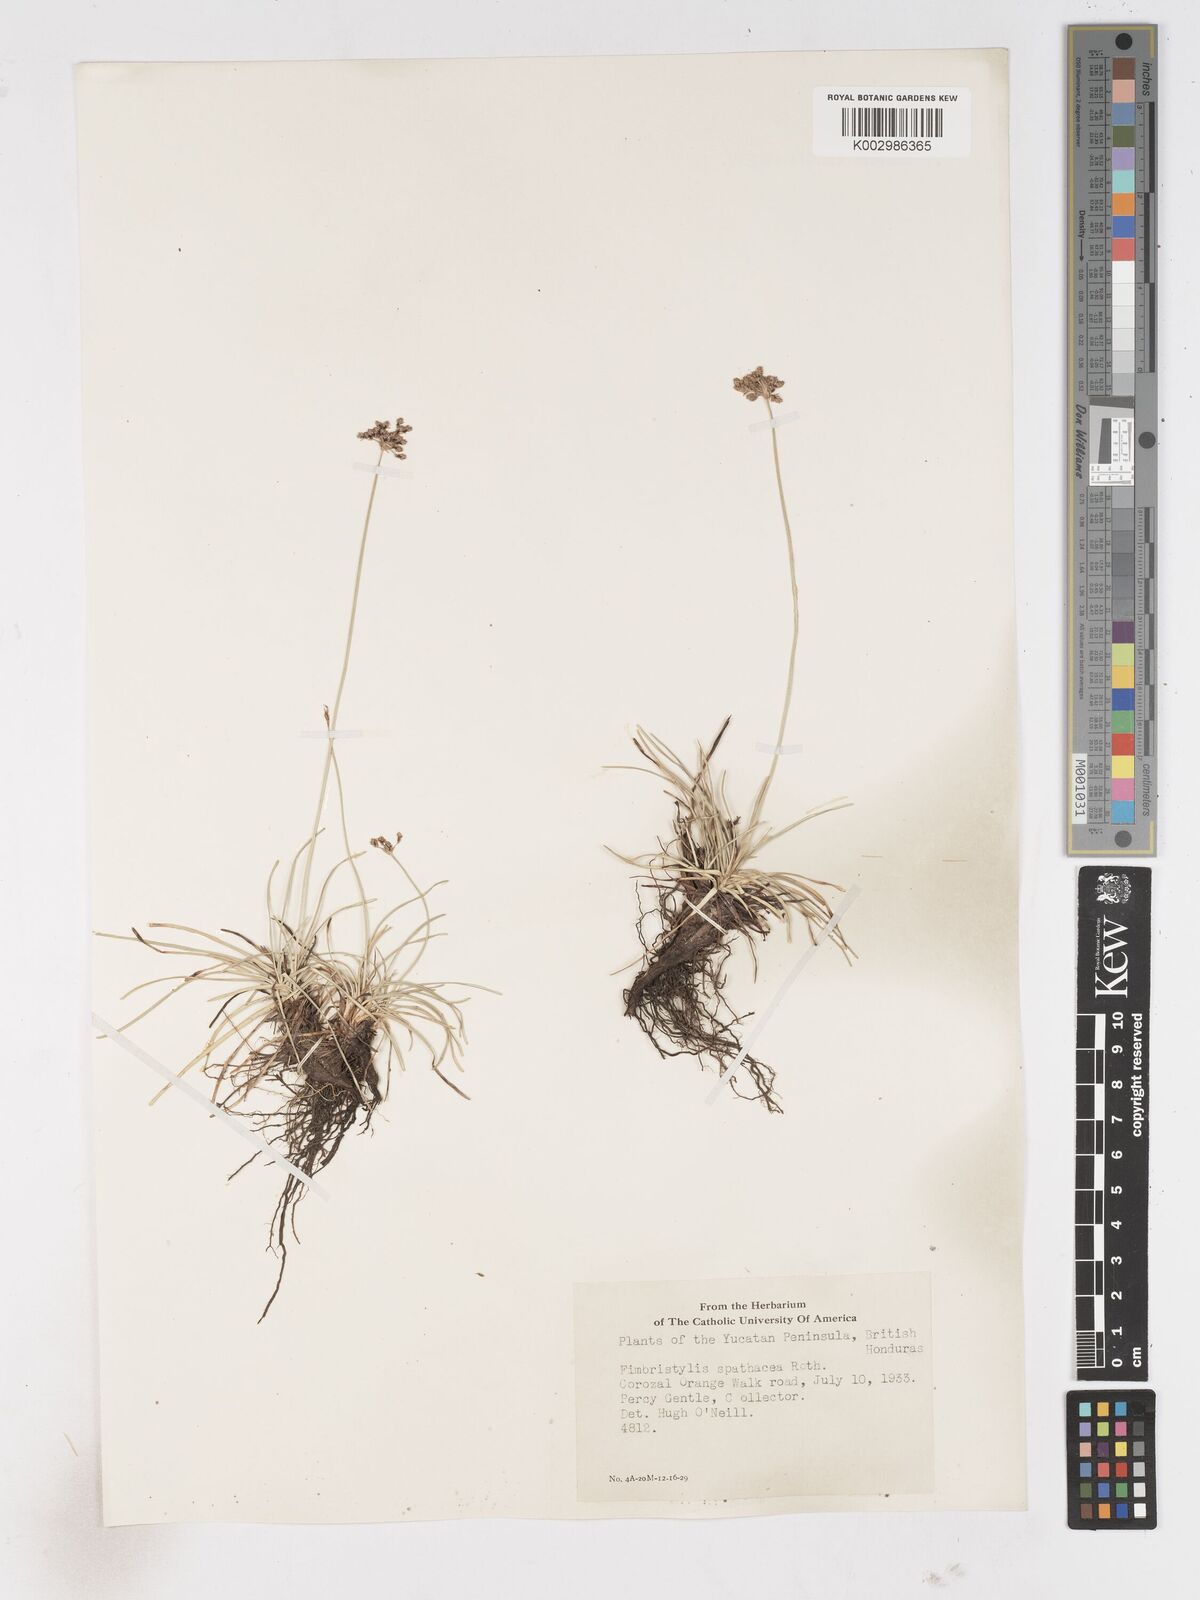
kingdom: Plantae
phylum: Tracheophyta
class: Liliopsida
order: Poales
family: Cyperaceae
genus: Fimbristylis
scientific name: Fimbristylis cymosa
